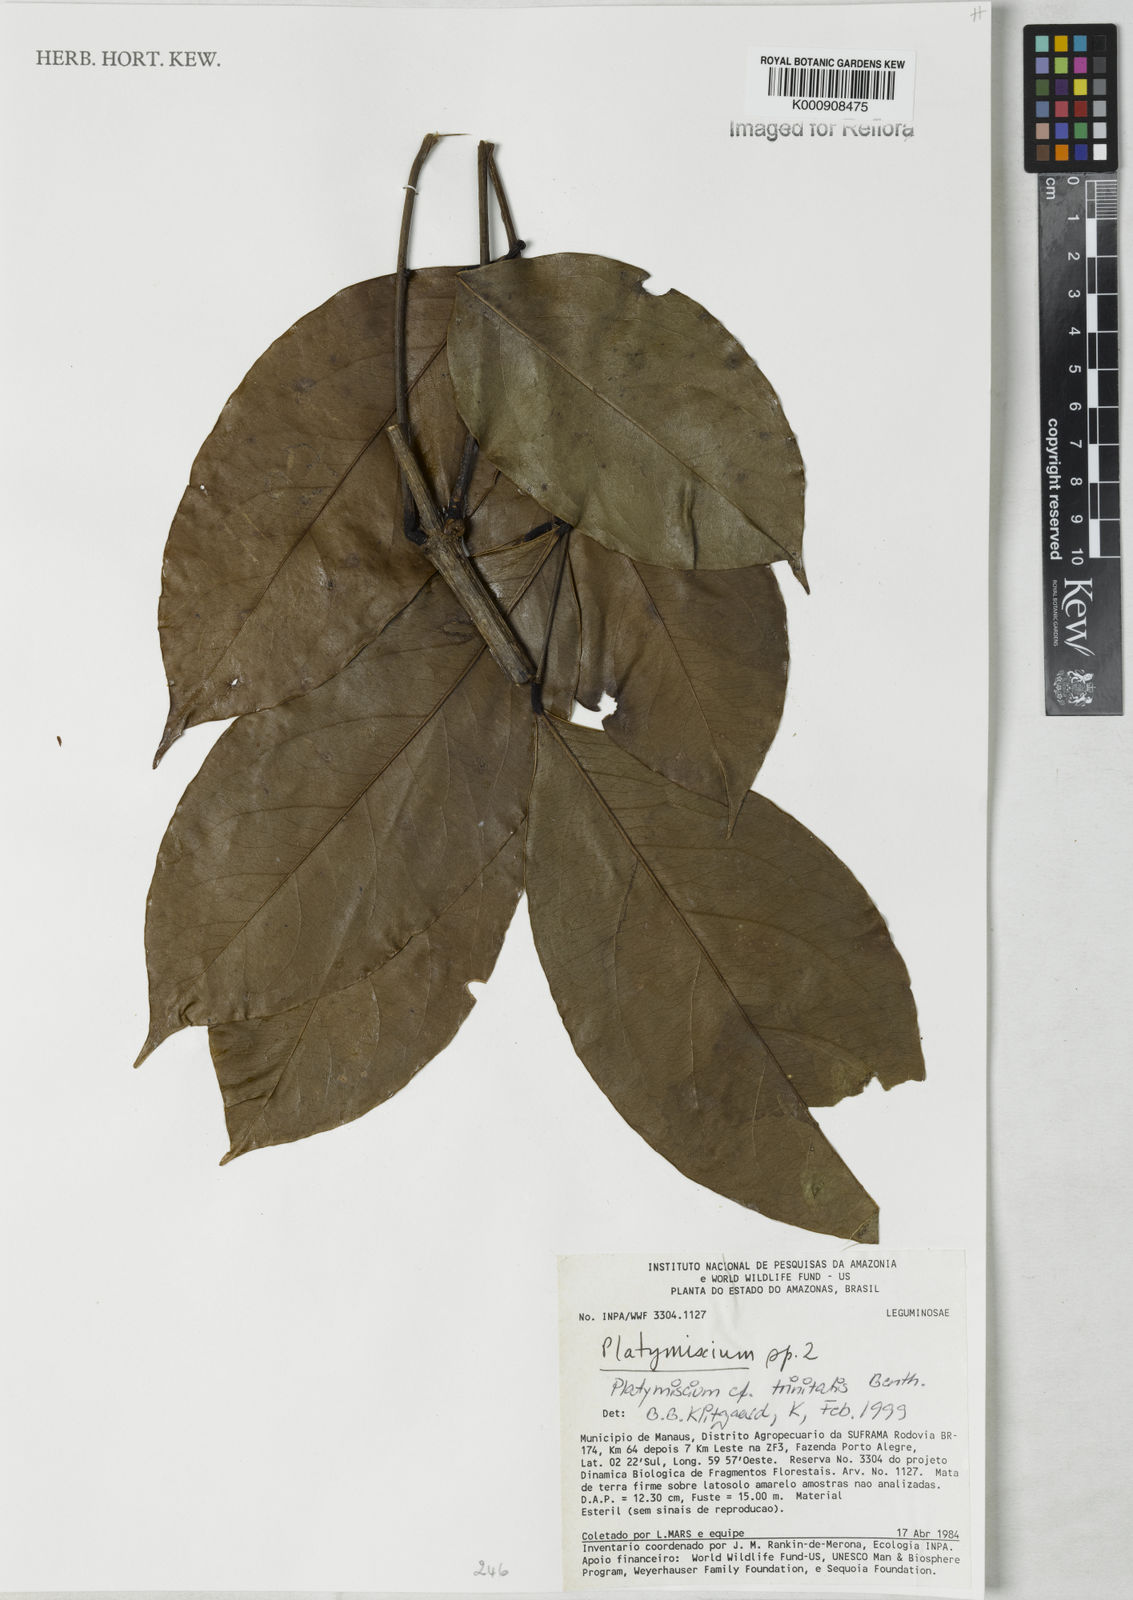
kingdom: Plantae
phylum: Tracheophyta
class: Magnoliopsida
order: Fabales
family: Fabaceae
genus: Platymiscium
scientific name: Platymiscium trinitatis
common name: Trinidad macawood
